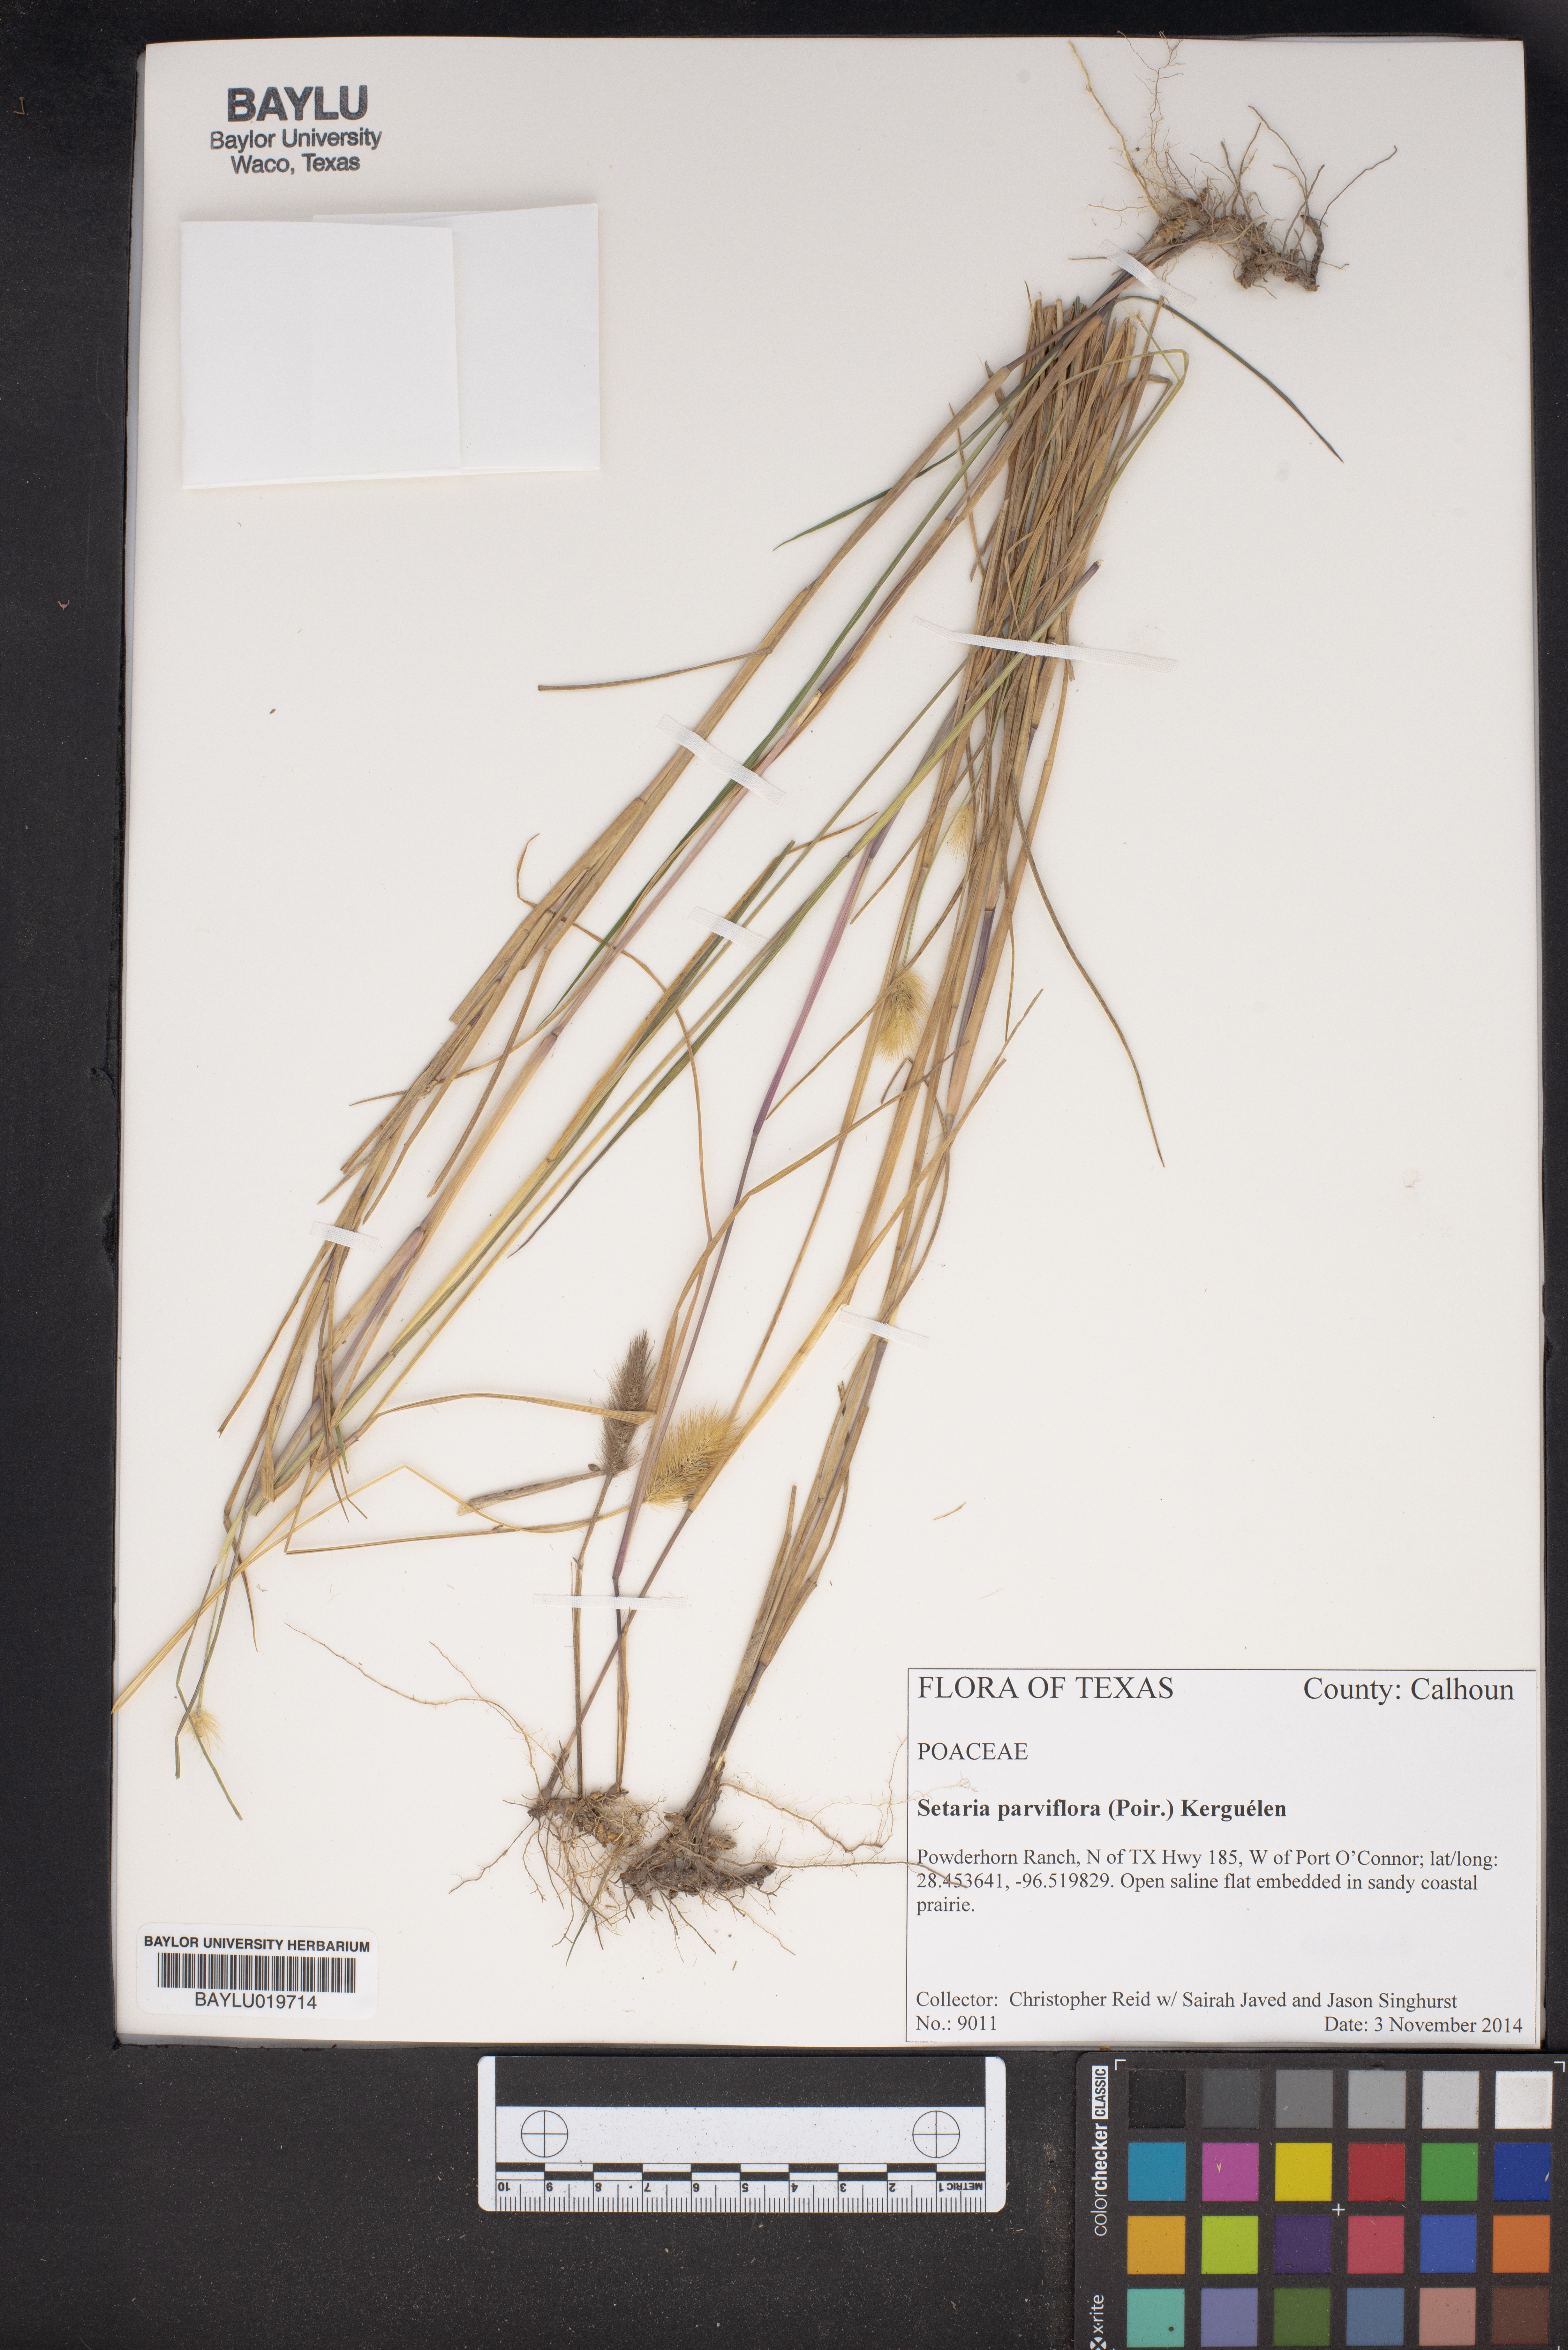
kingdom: Plantae
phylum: Tracheophyta
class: Liliopsida
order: Poales
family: Poaceae
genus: Setaria
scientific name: Setaria parviflora
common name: Knotroot bristle-grass
